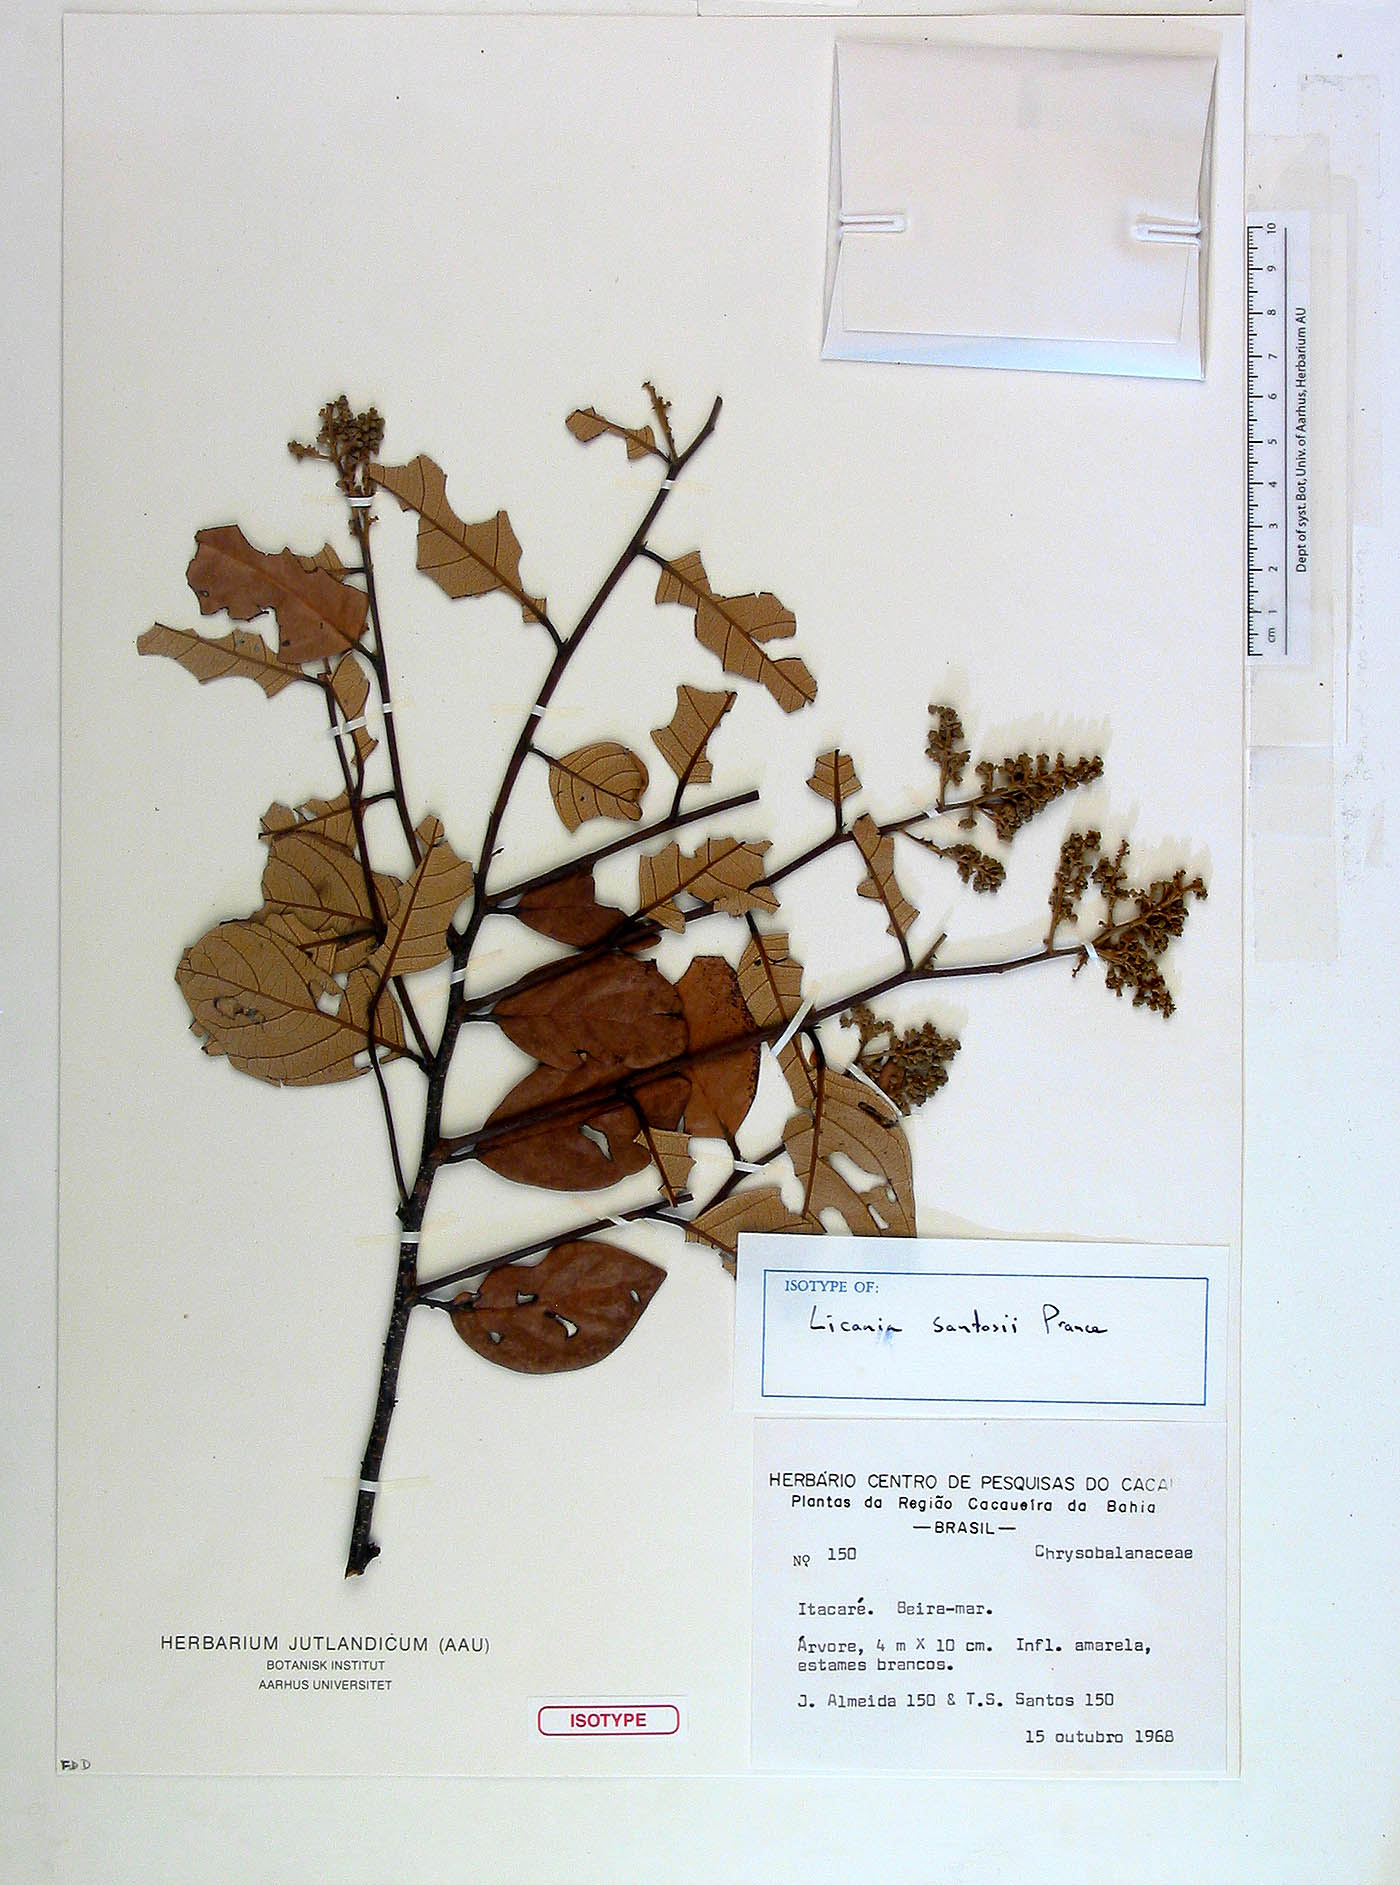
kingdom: Plantae
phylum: Tracheophyta
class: Magnoliopsida
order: Malpighiales
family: Chrysobalanaceae
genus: Licania
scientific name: Licania santosii
